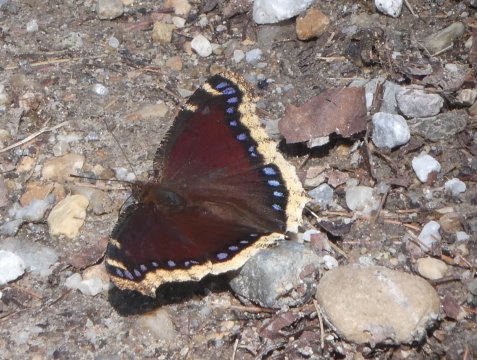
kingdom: Animalia
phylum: Arthropoda
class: Insecta
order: Lepidoptera
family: Nymphalidae
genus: Nymphalis
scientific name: Nymphalis antiopa
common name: Mourning Cloak
